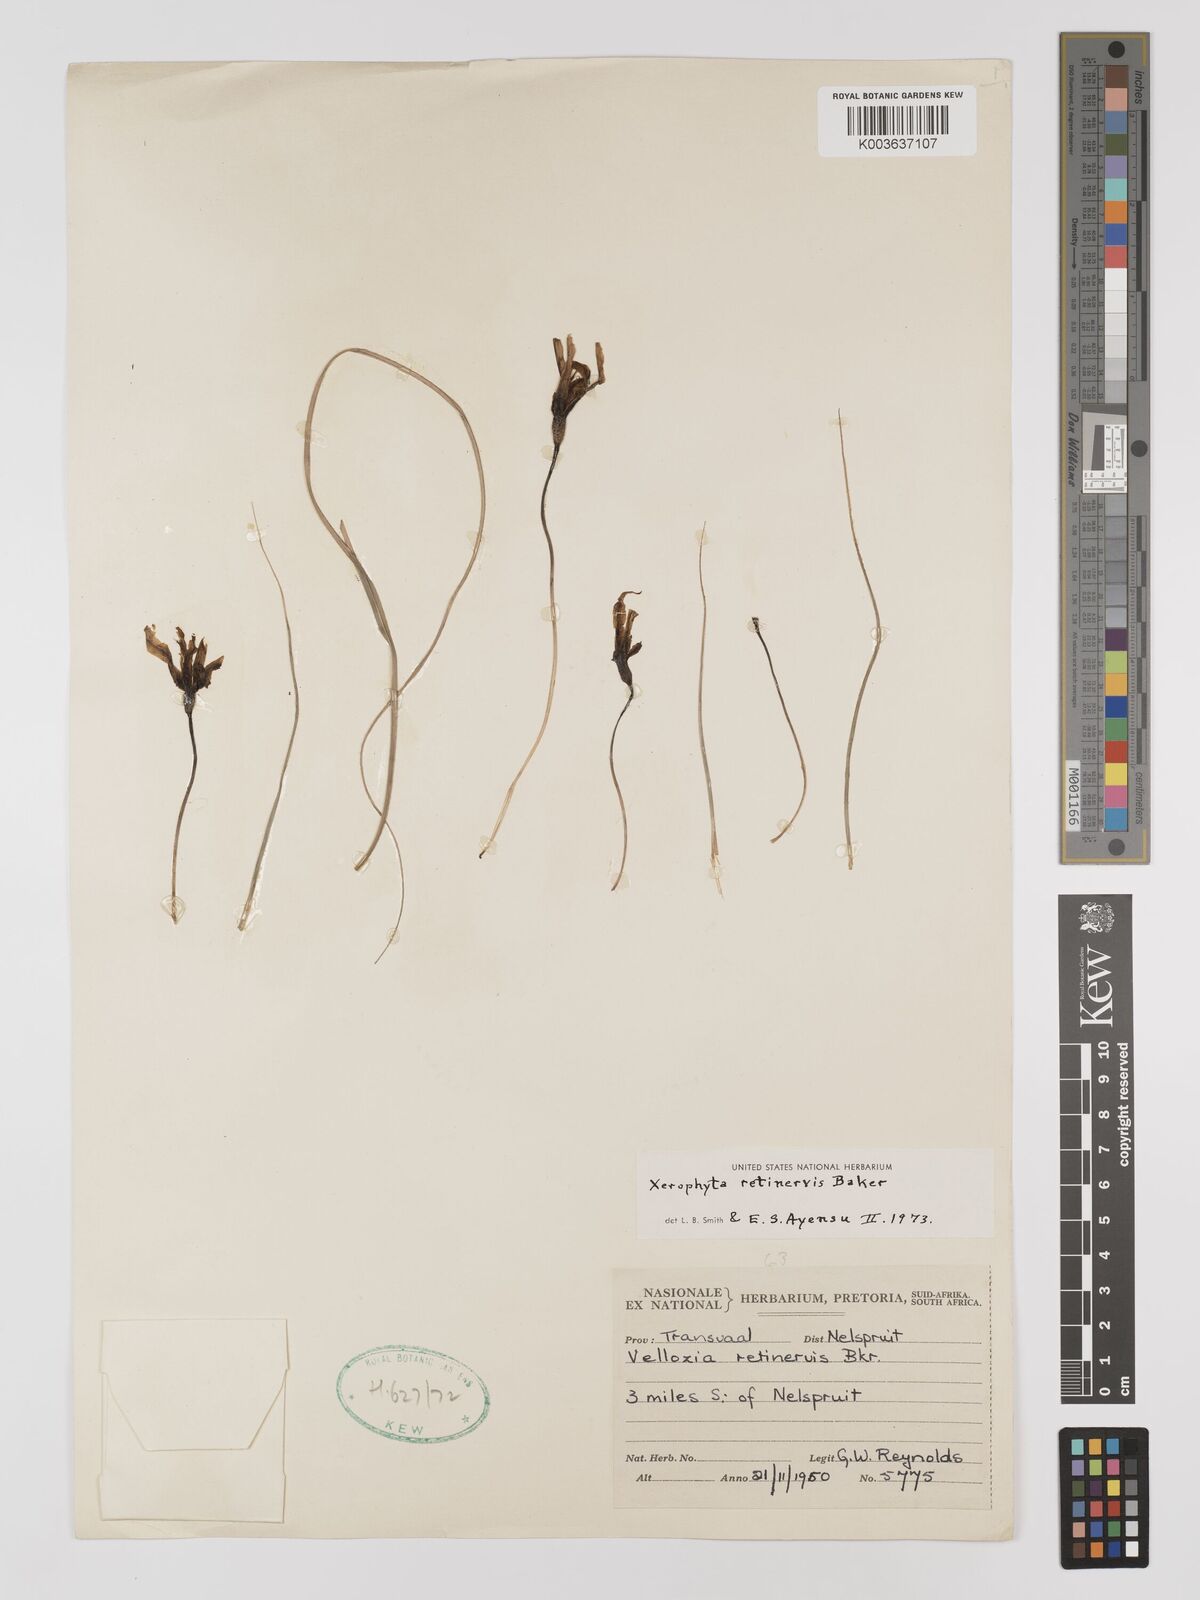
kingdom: Plantae
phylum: Tracheophyta
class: Liliopsida
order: Pandanales
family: Velloziaceae
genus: Xerophyta
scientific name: Xerophyta retinervis
